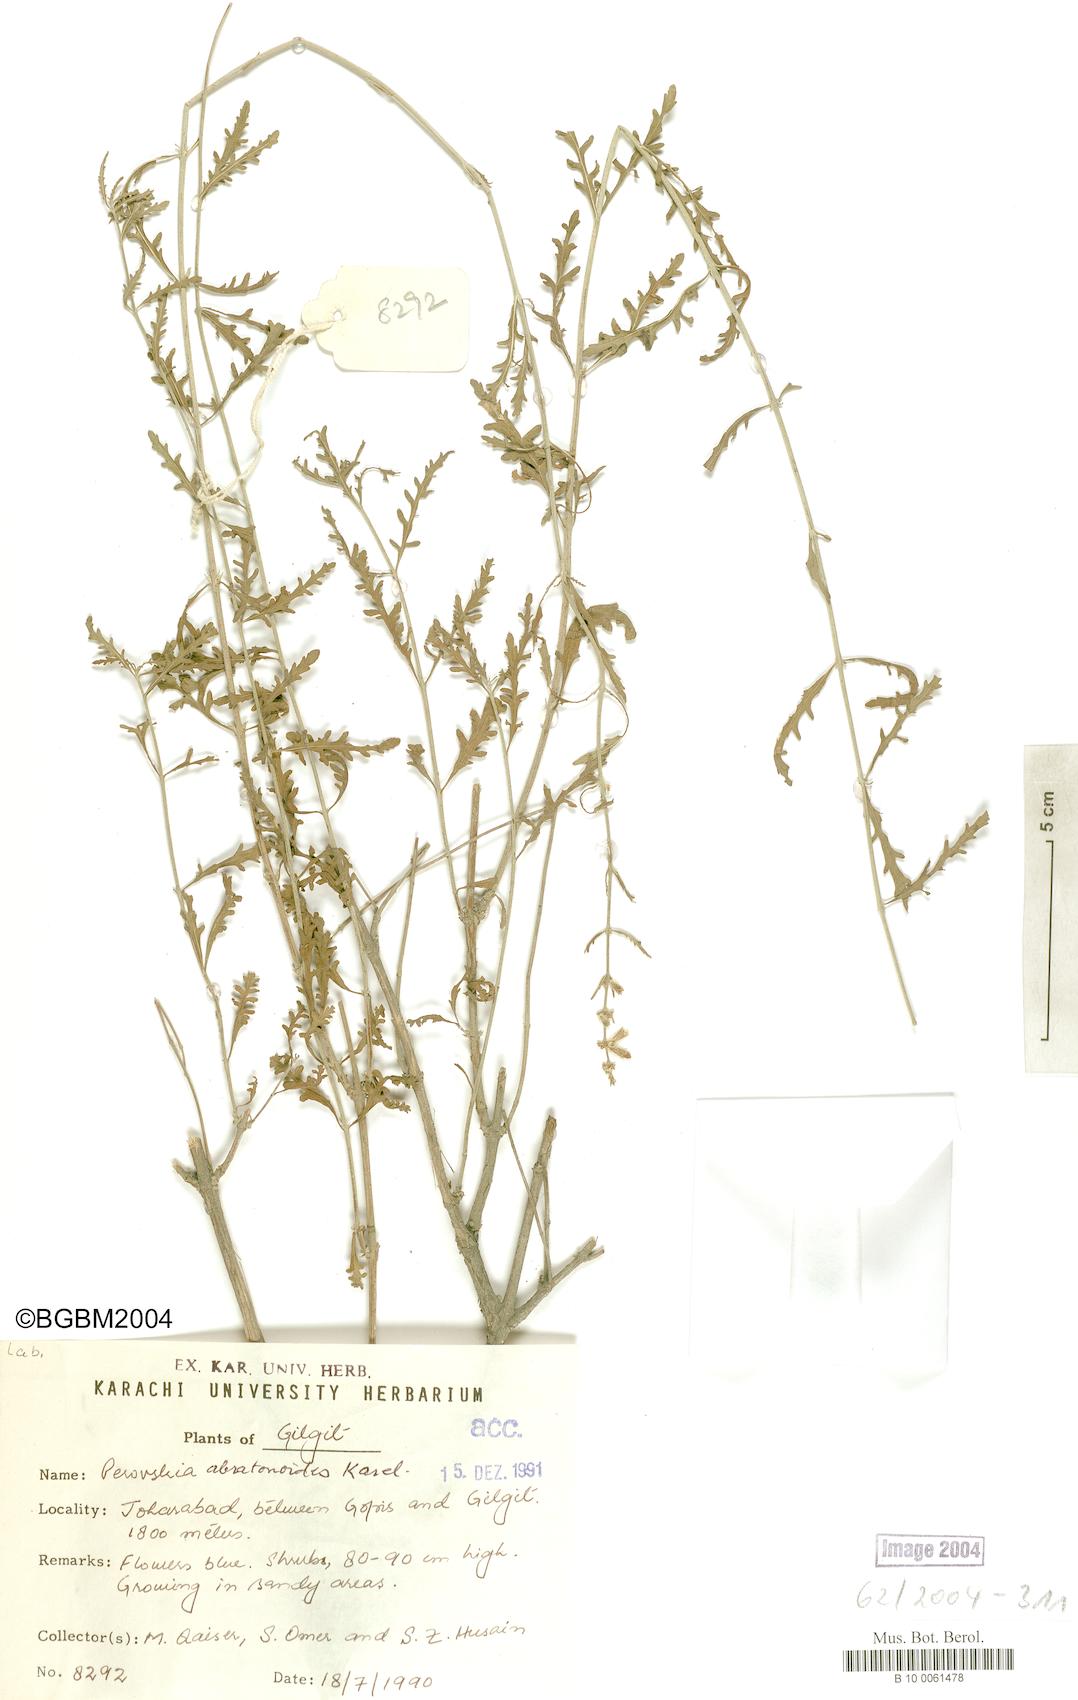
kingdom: Plantae
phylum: Tracheophyta
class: Magnoliopsida
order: Lamiales
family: Lamiaceae
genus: Salvia
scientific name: Salvia abrotanoides
